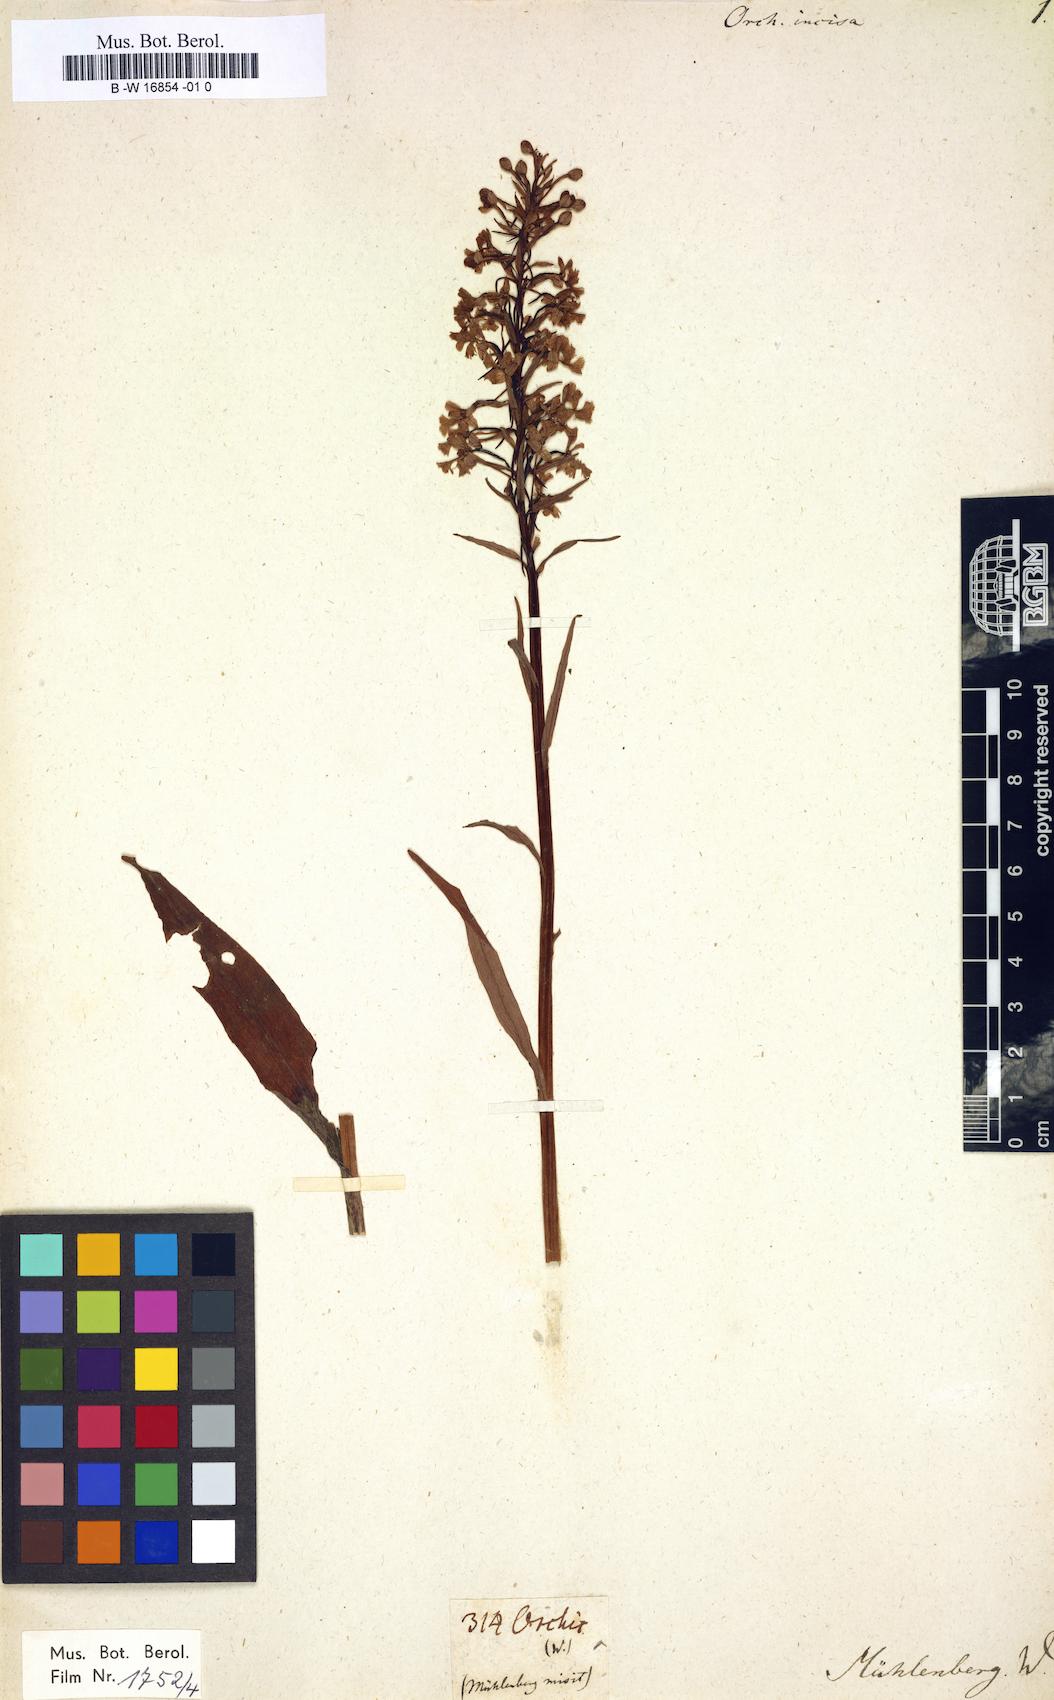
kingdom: Plantae
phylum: Tracheophyta
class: Liliopsida
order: Asparagales
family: Orchidaceae
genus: Platanthera
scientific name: Platanthera psycodes
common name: Lesser purple fringed orchid
